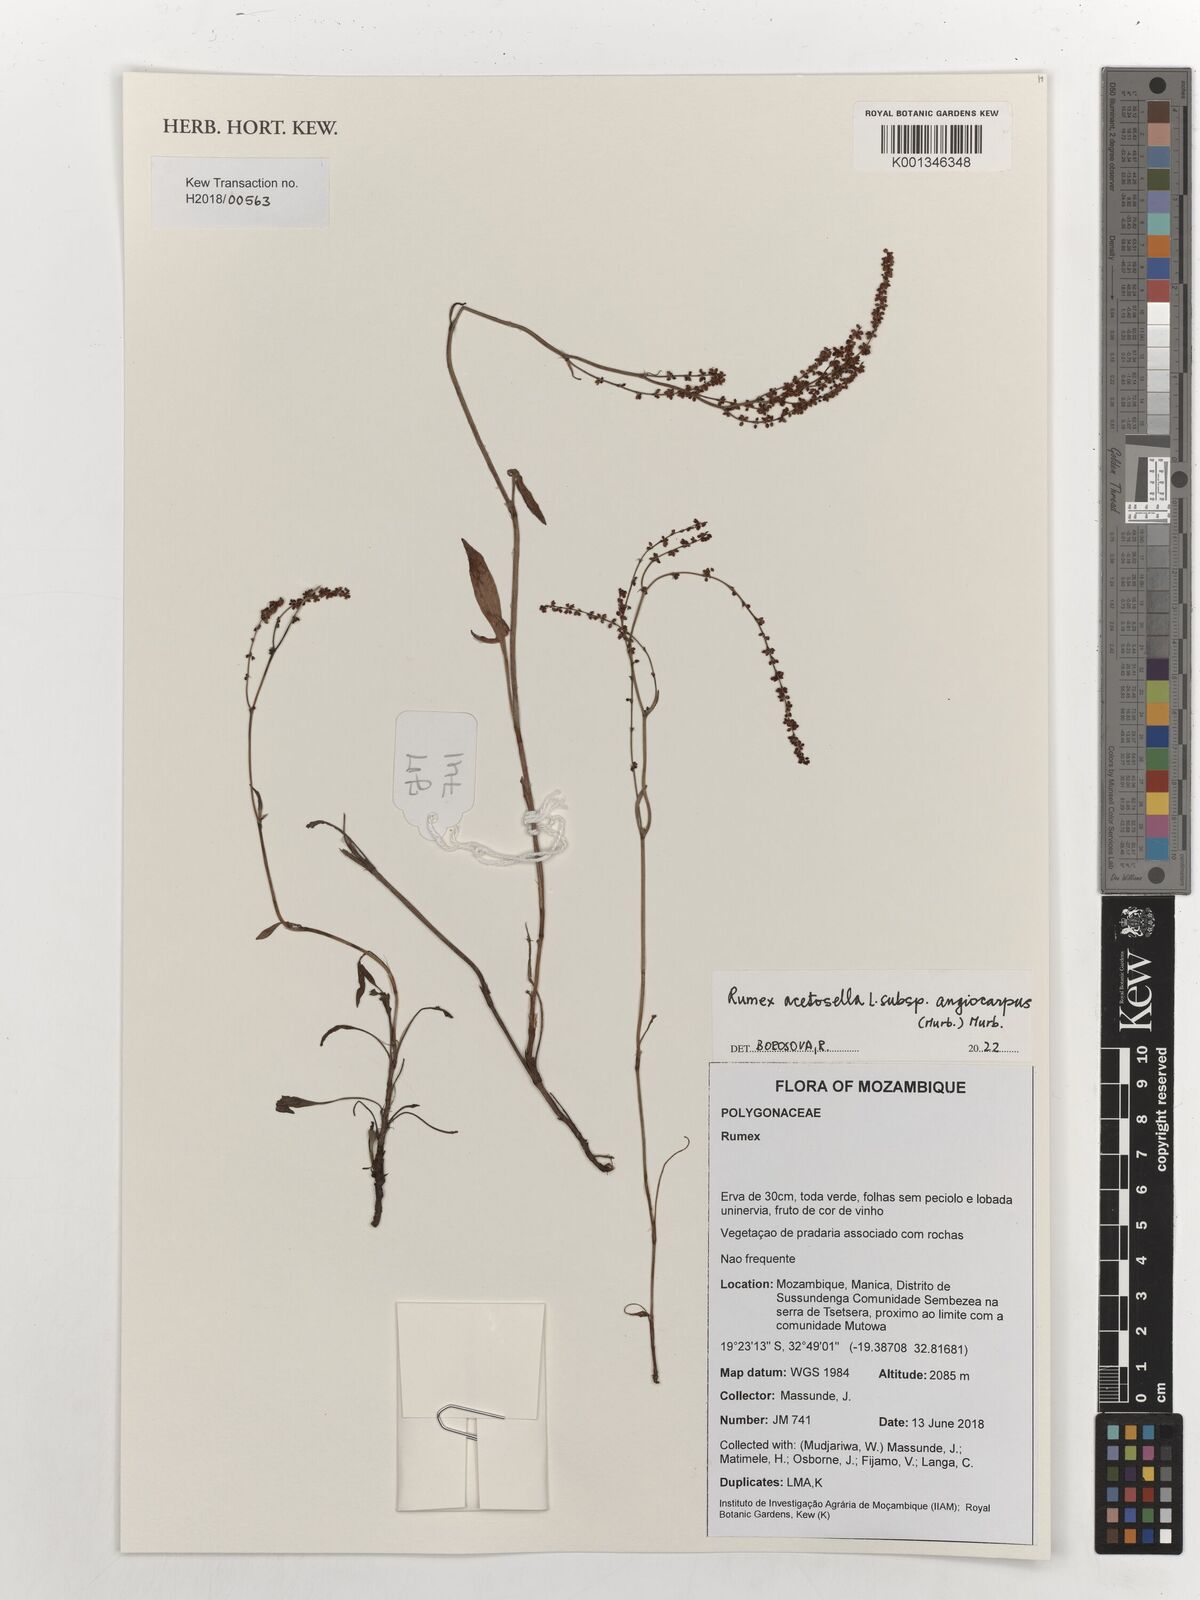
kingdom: Plantae
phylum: Tracheophyta
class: Magnoliopsida
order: Caryophyllales
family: Polygonaceae
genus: Rumex
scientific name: Rumex acetosella
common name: Common sheep sorrel
